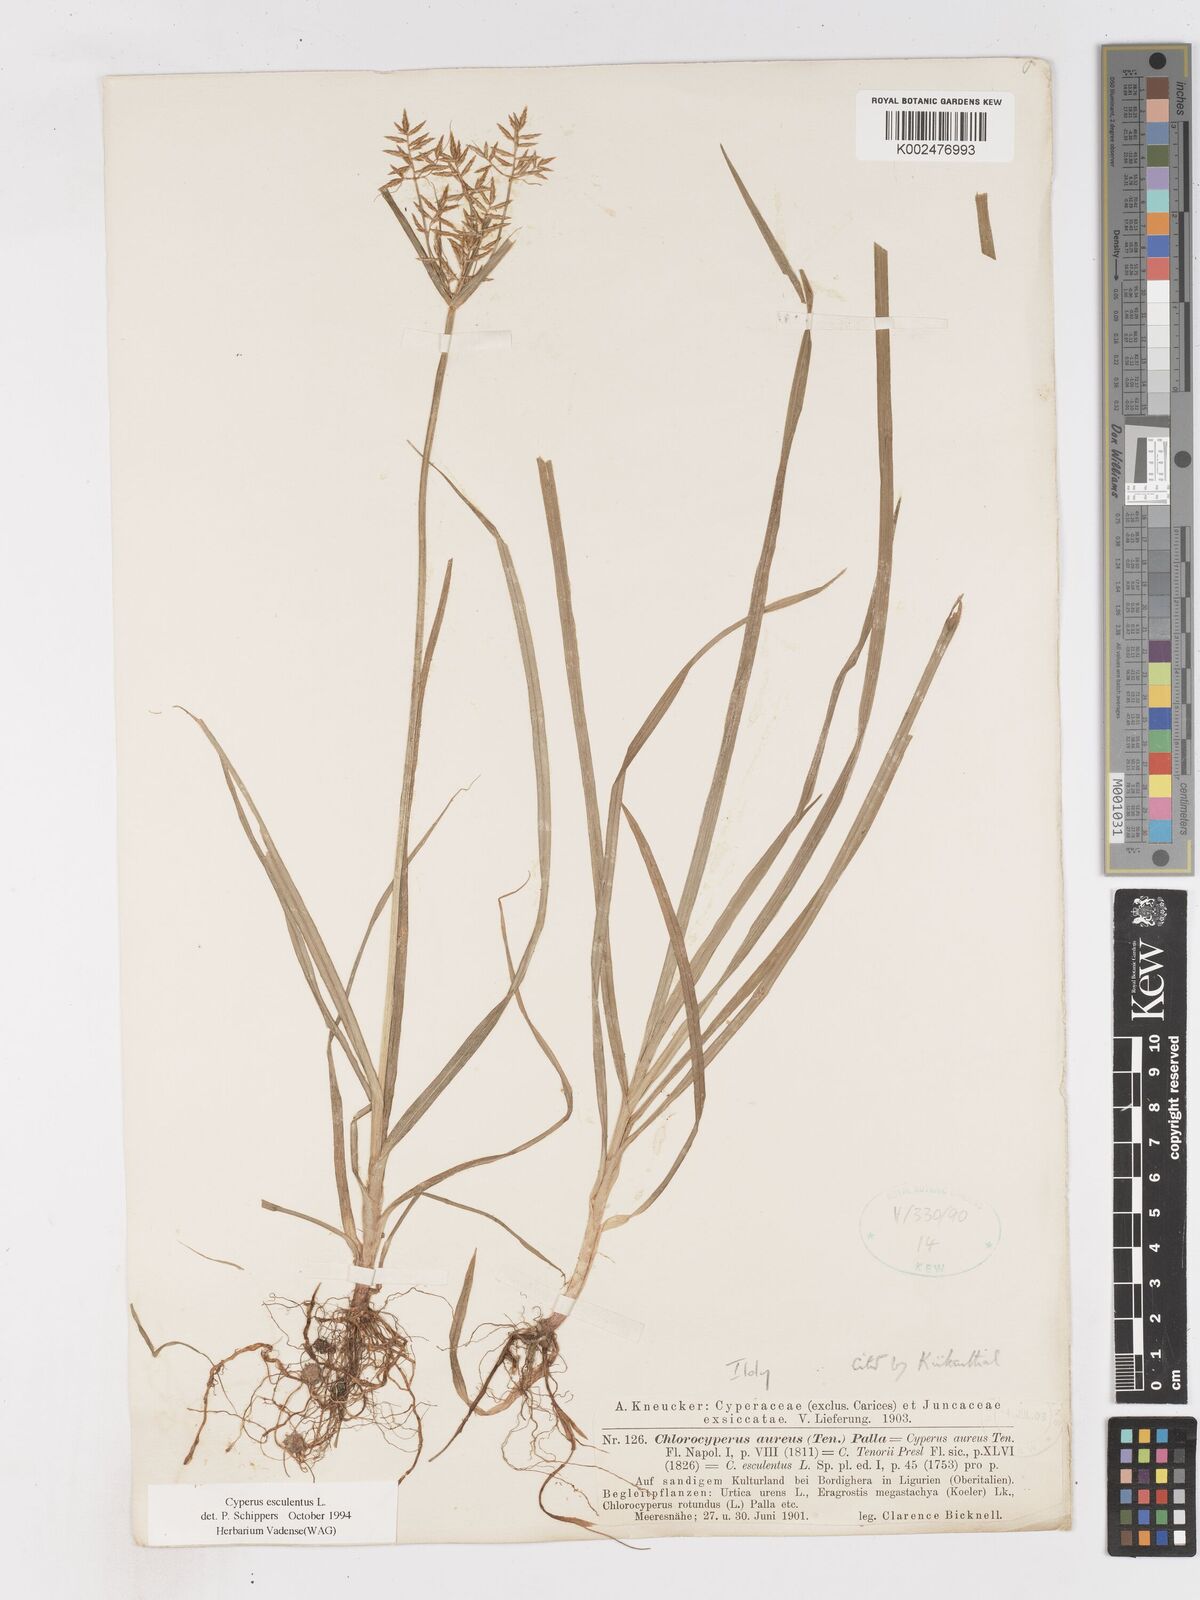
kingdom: Plantae
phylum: Tracheophyta
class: Liliopsida
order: Poales
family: Cyperaceae
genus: Cyperus
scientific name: Cyperus esculentus
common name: Yellow nutsedge
